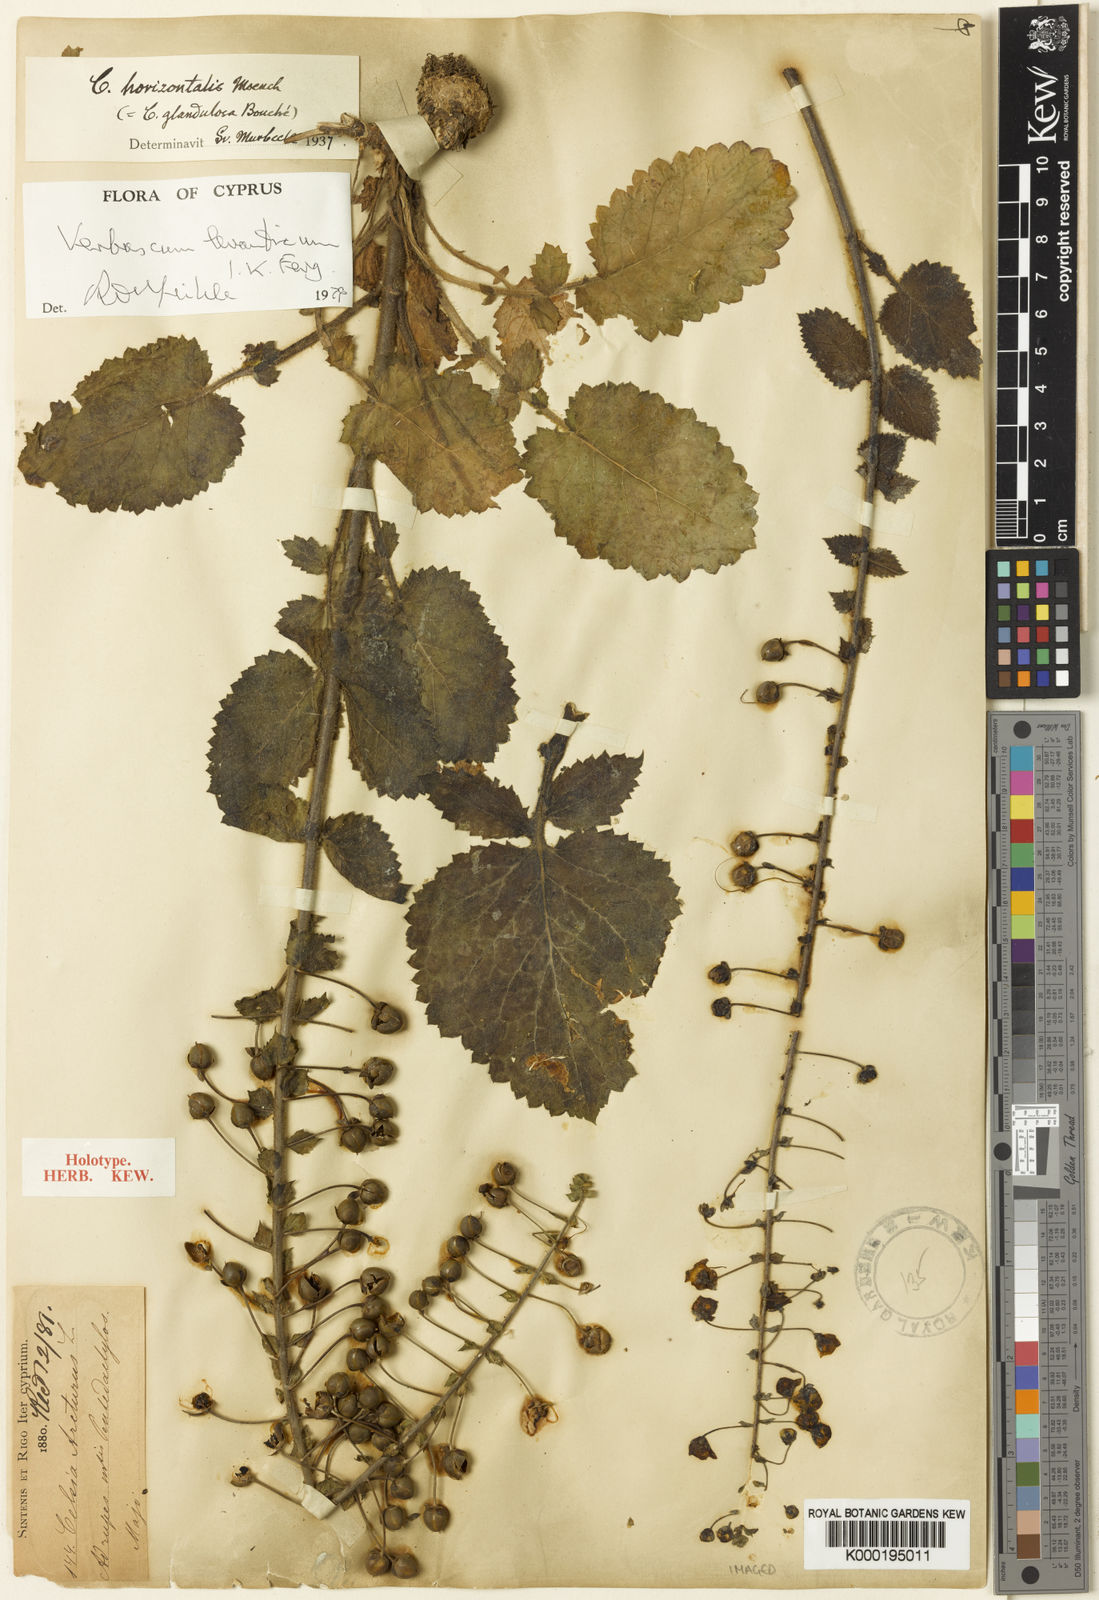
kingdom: Plantae
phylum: Tracheophyta
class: Magnoliopsida
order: Lamiales
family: Scrophulariaceae
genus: Verbascum
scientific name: Verbascum levanticum
